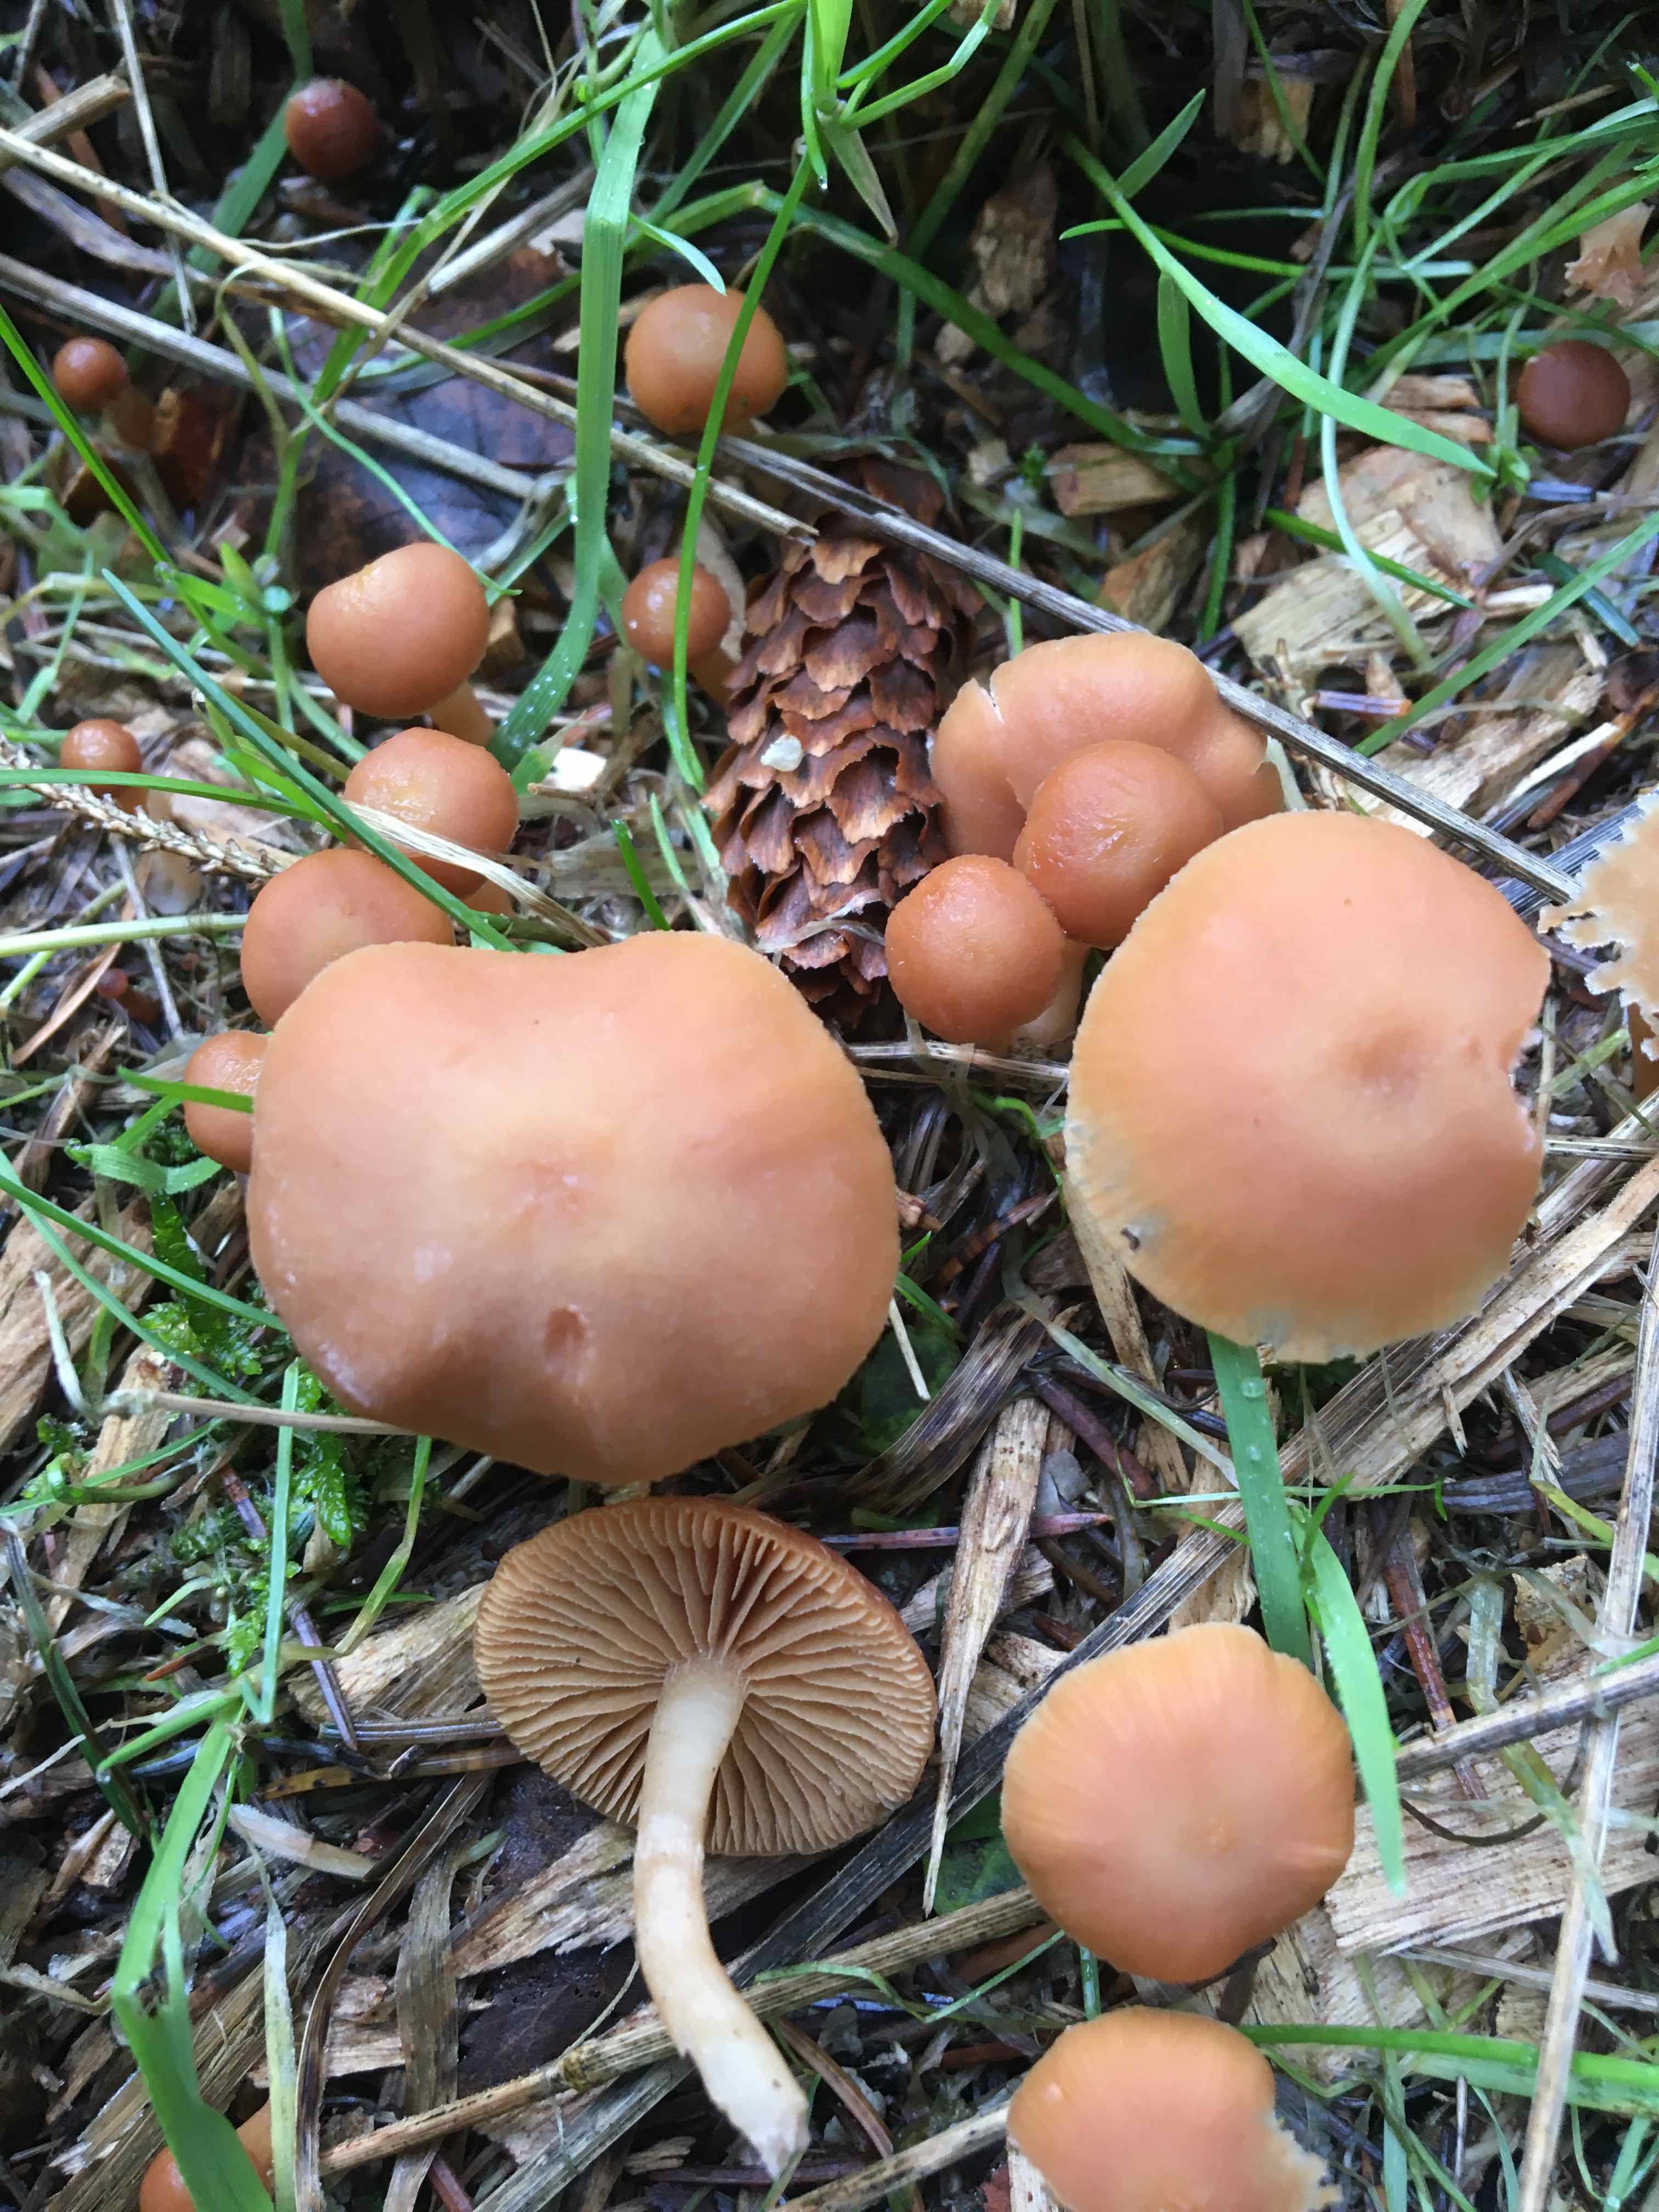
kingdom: Fungi
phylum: Basidiomycota
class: Agaricomycetes
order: Agaricales
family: Tubariaceae
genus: Tubaria
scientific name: Tubaria furfuracea
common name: kliddet fnughat
